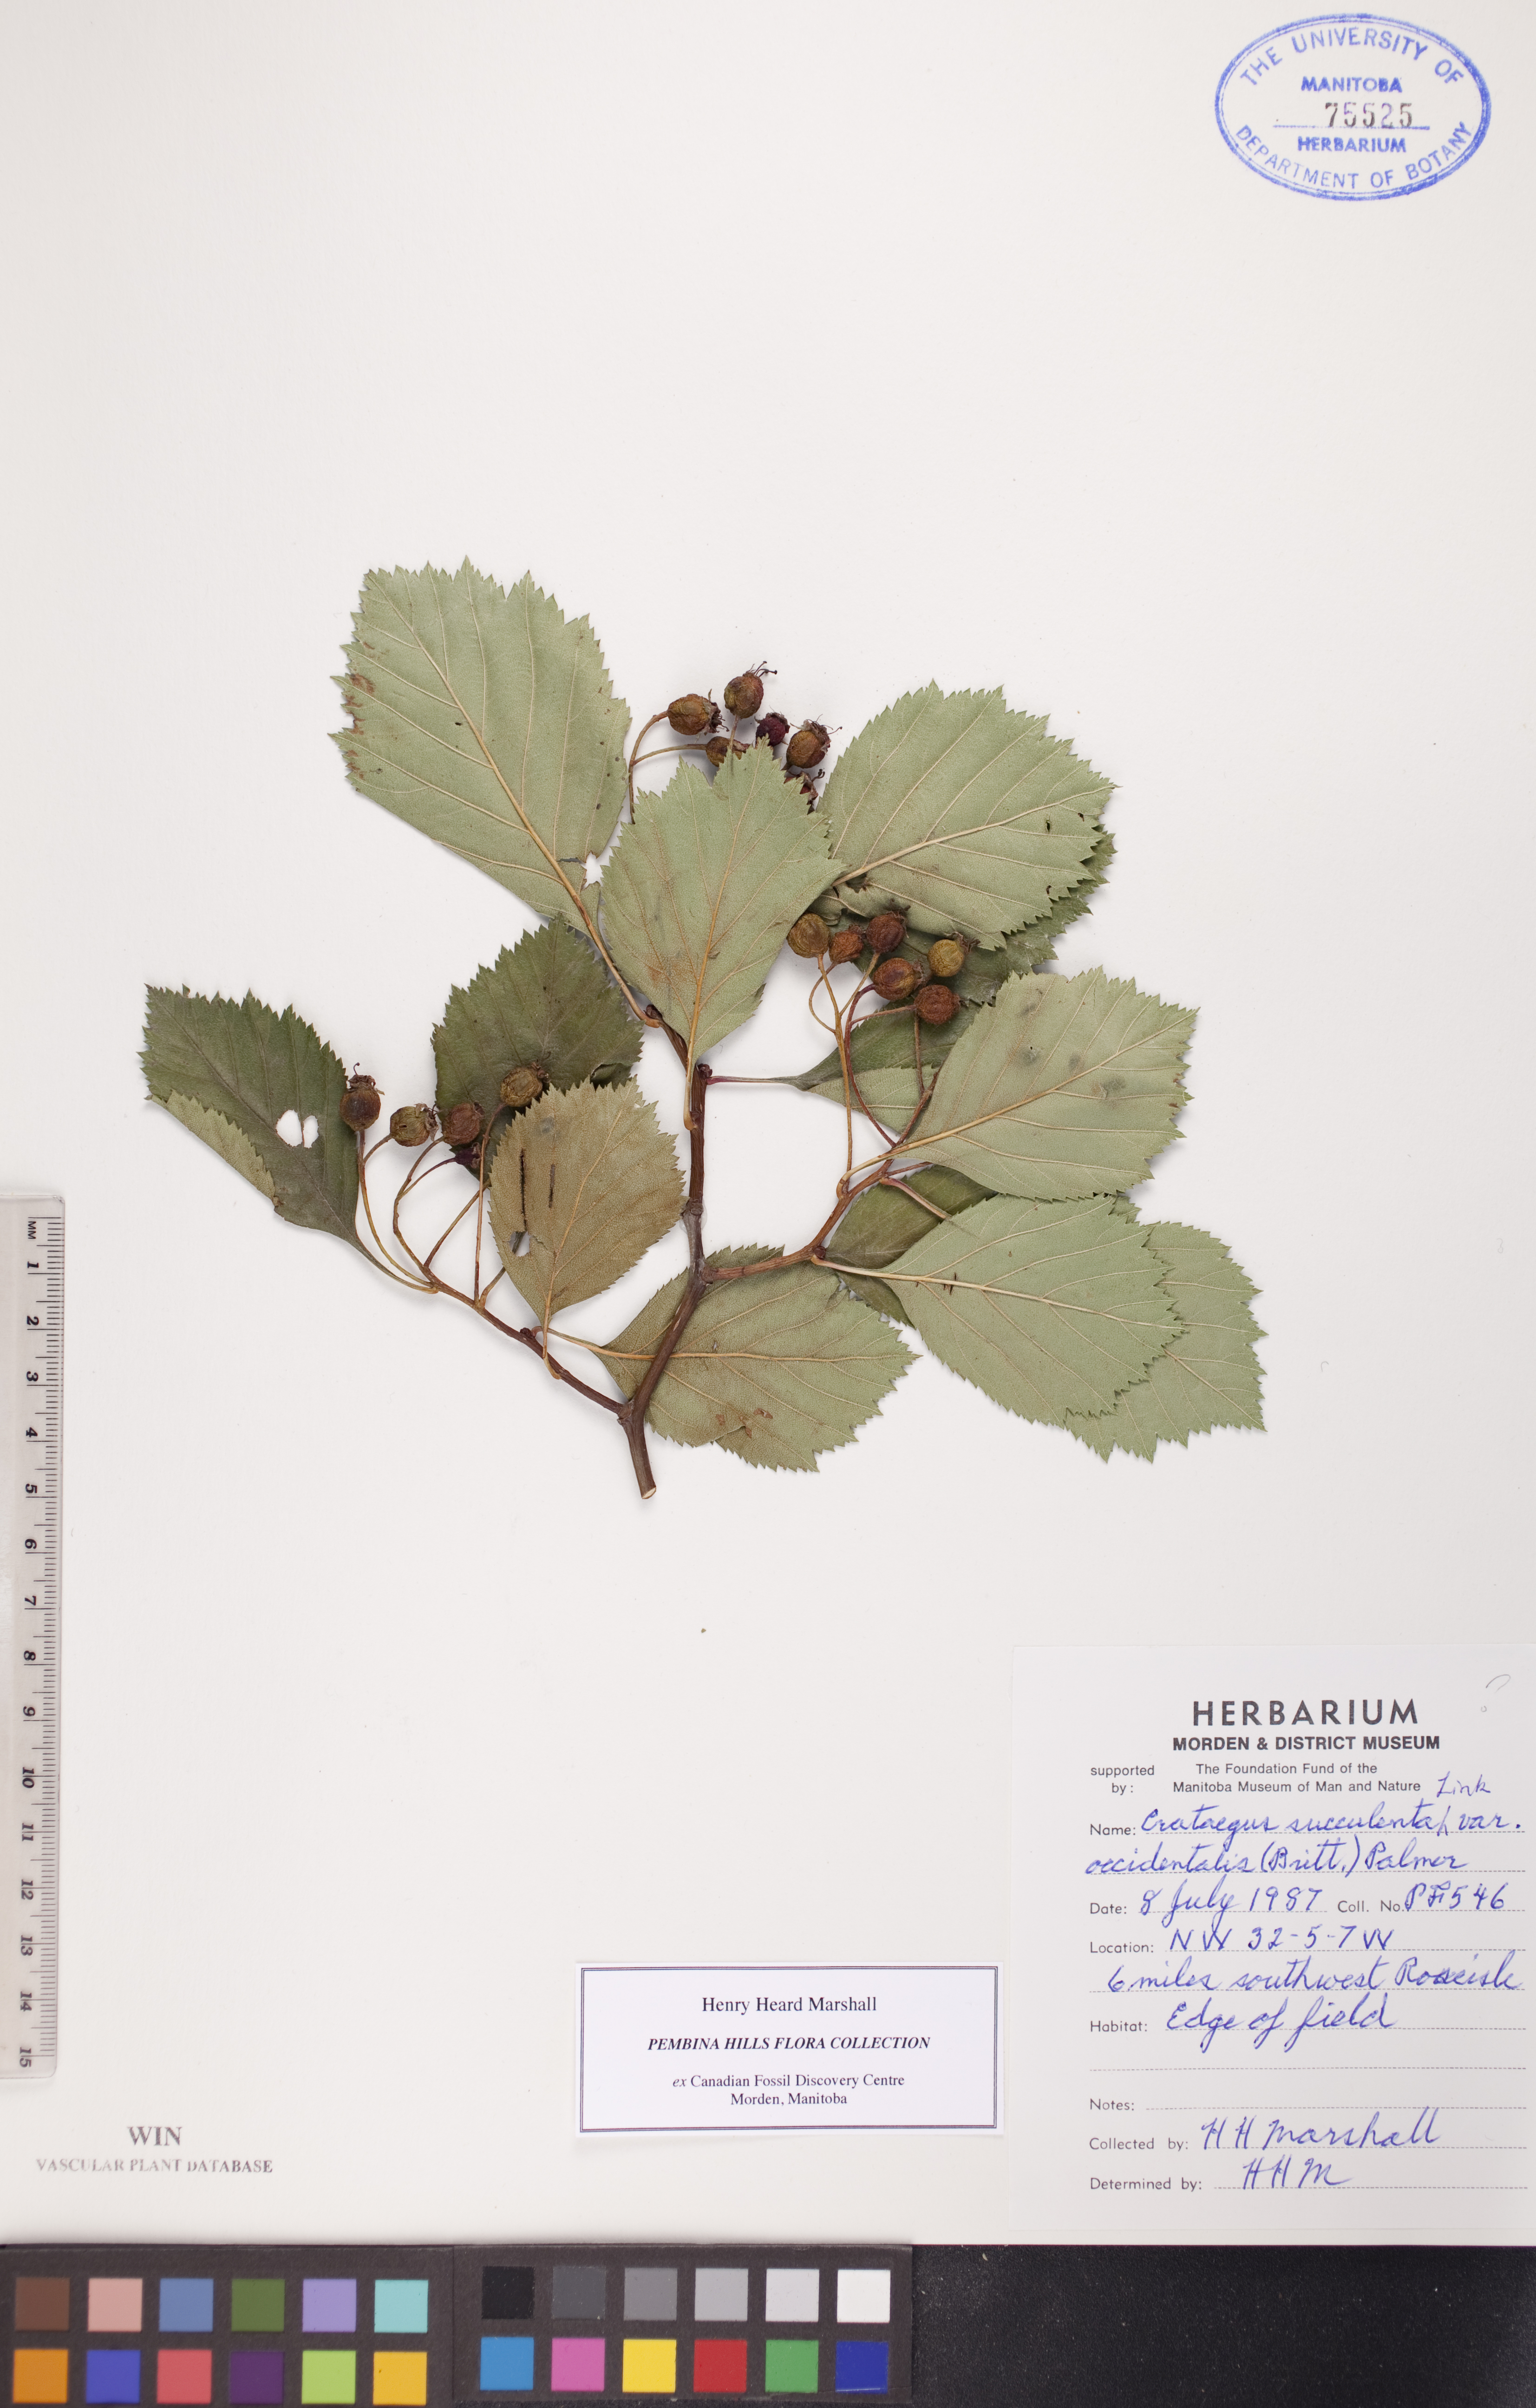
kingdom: Plantae
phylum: Tracheophyta
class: Magnoliopsida
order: Rosales
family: Rosaceae
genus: Crataegus
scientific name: Crataegus succulenta
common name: Fleshy hawthorn
